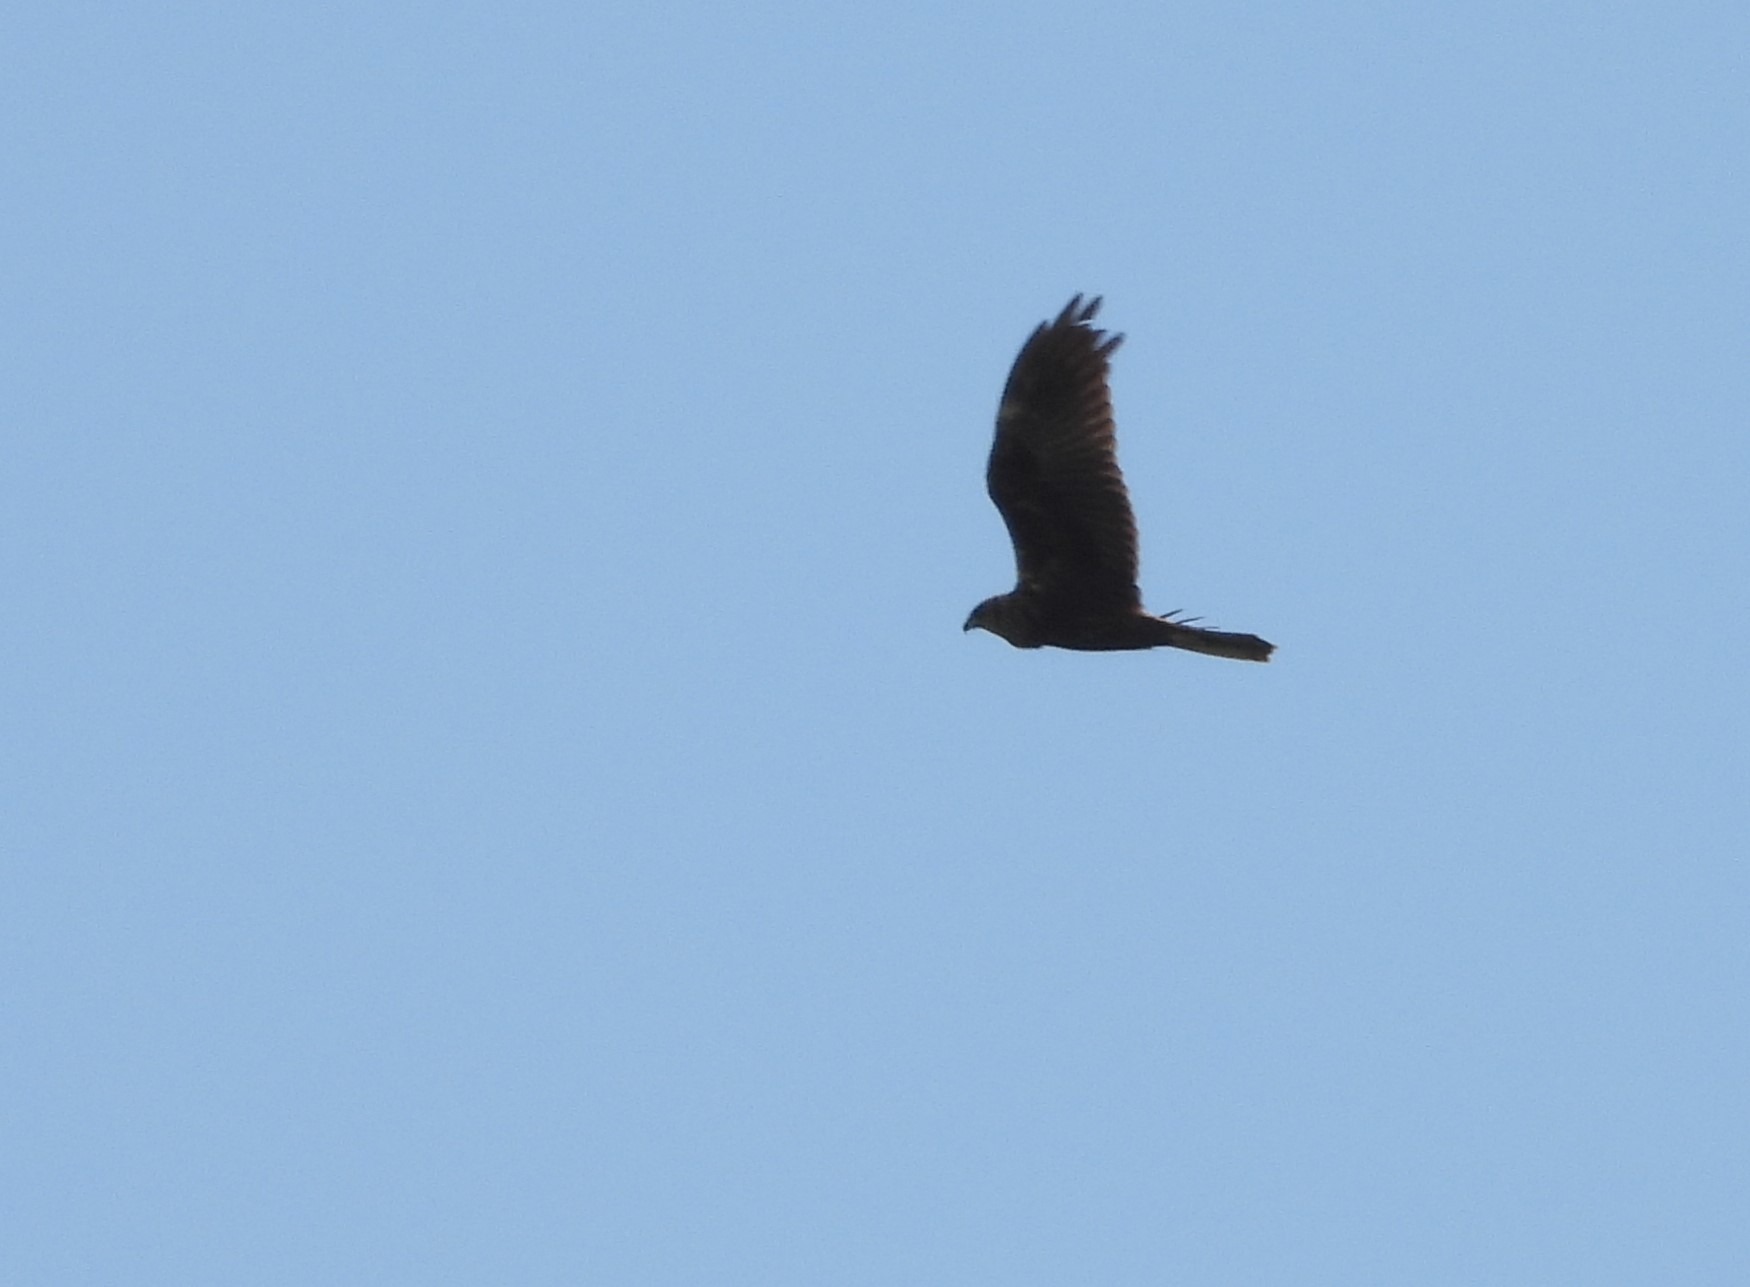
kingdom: Animalia
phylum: Chordata
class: Aves
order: Accipitriformes
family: Accipitridae
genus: Circus
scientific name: Circus aeruginosus
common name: Rørhøg
